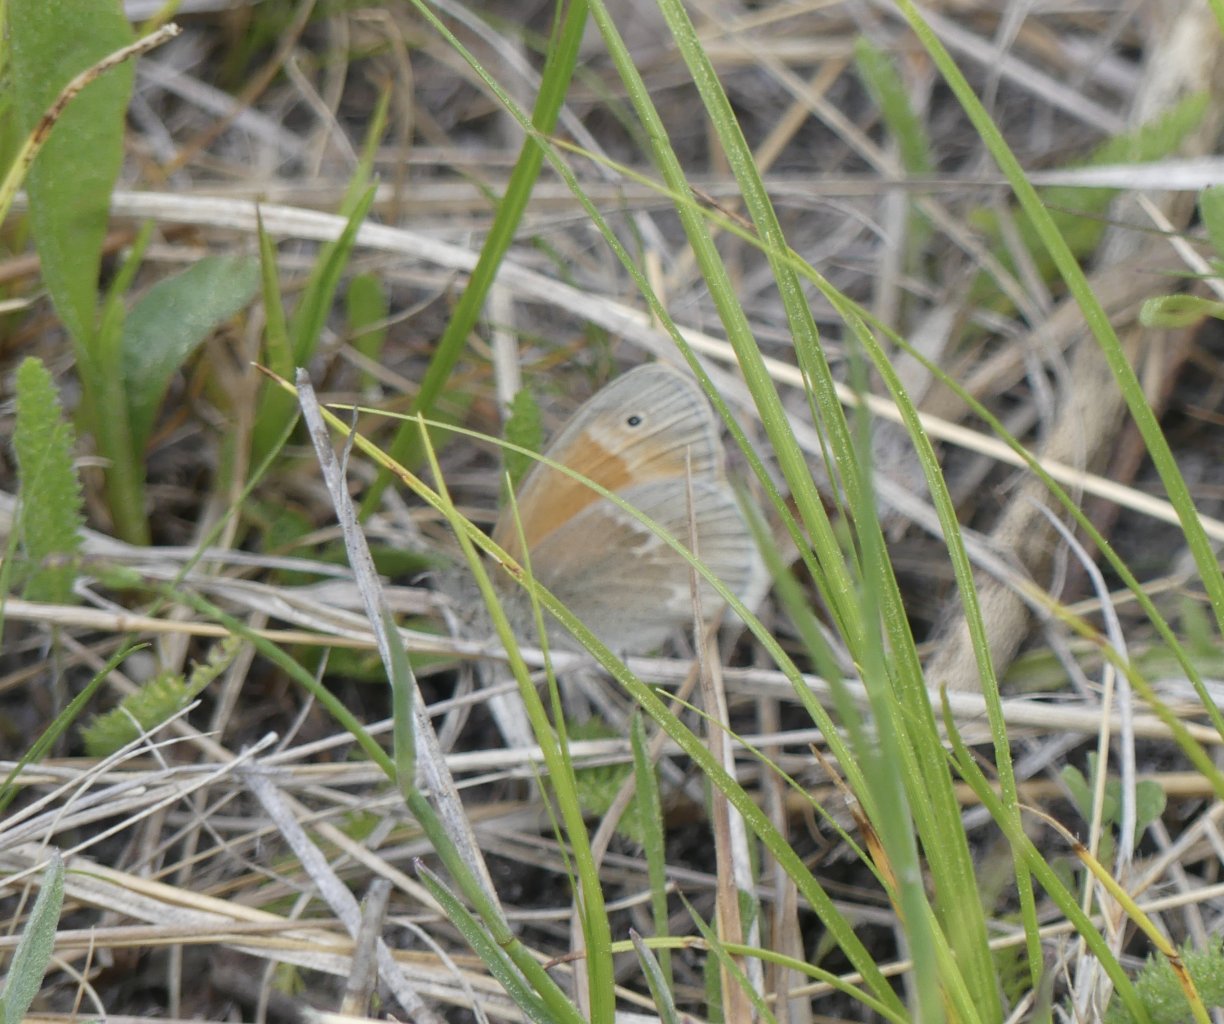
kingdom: Animalia
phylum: Arthropoda
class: Insecta
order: Lepidoptera
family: Nymphalidae
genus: Coenonympha
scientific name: Coenonympha tullia
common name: Large Heath
